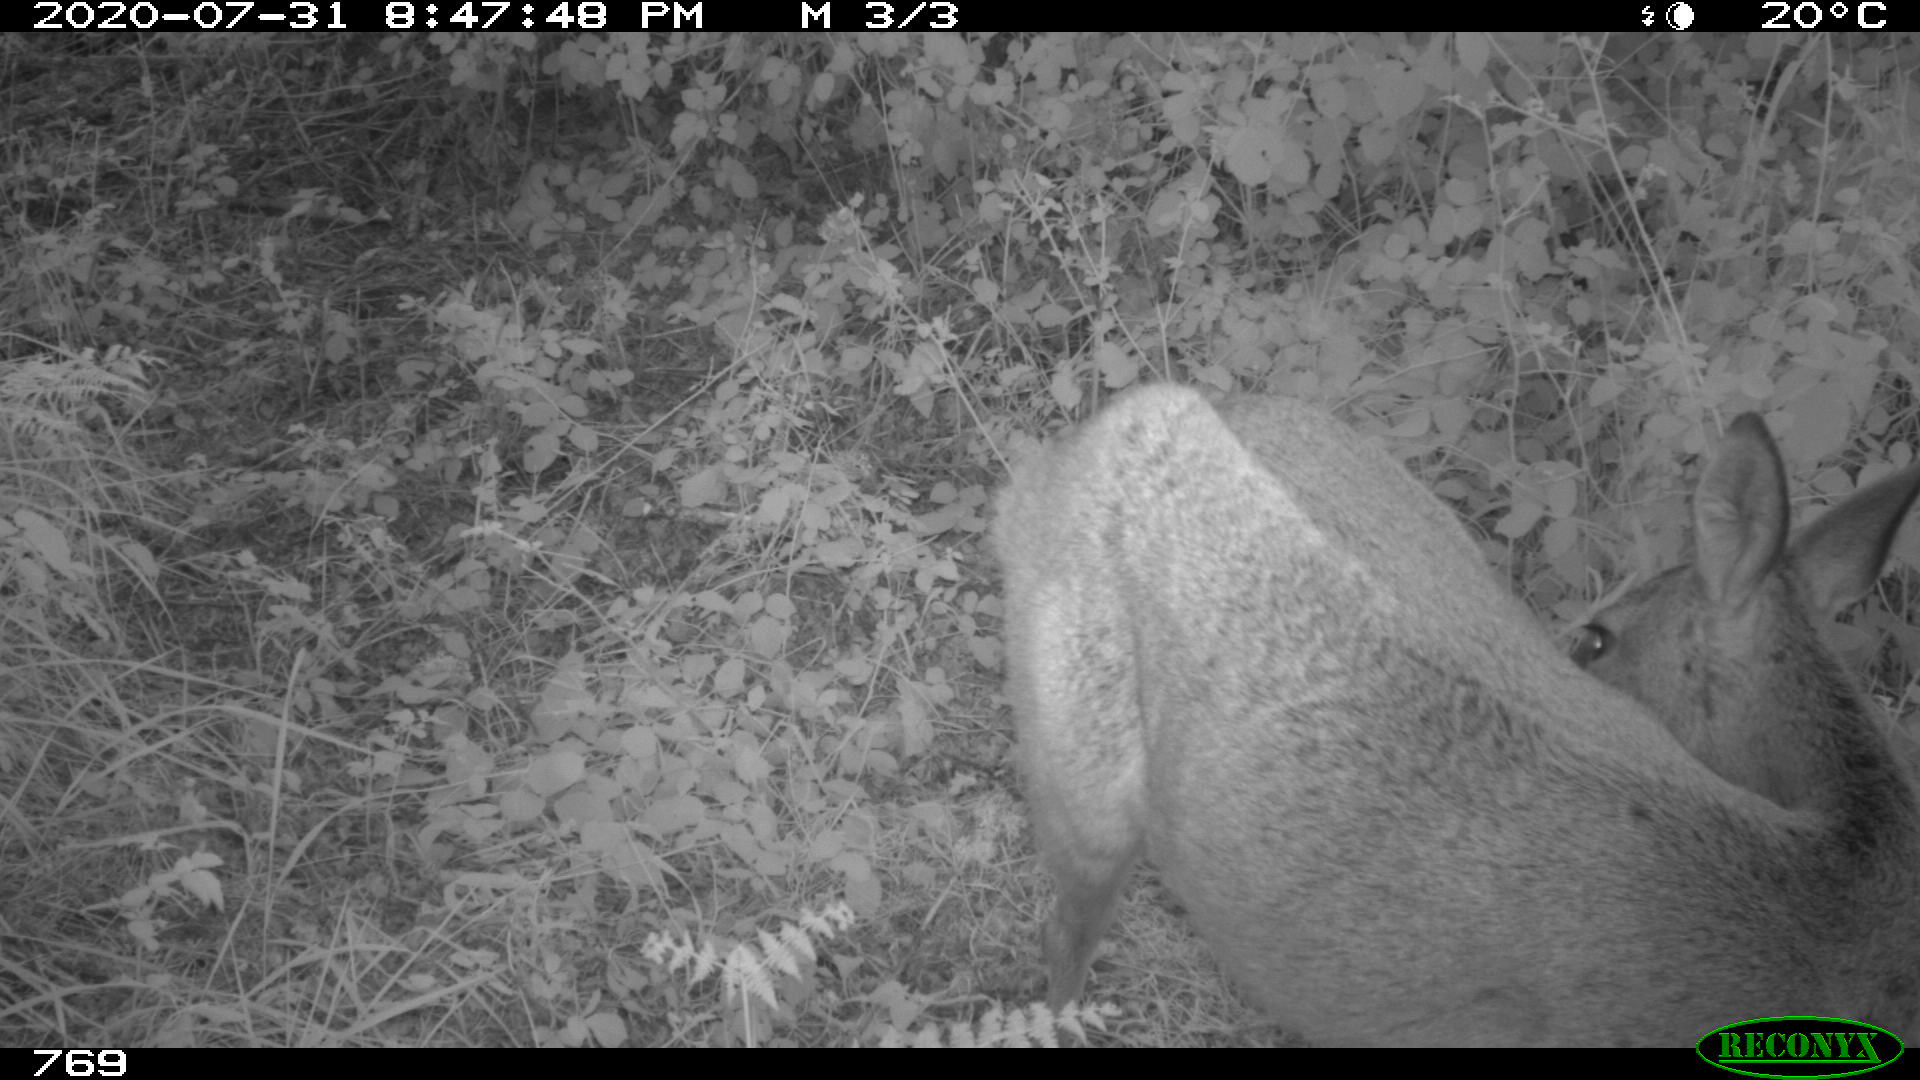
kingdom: Animalia
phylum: Chordata
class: Mammalia
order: Artiodactyla
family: Cervidae
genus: Capreolus
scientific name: Capreolus capreolus
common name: Western roe deer
